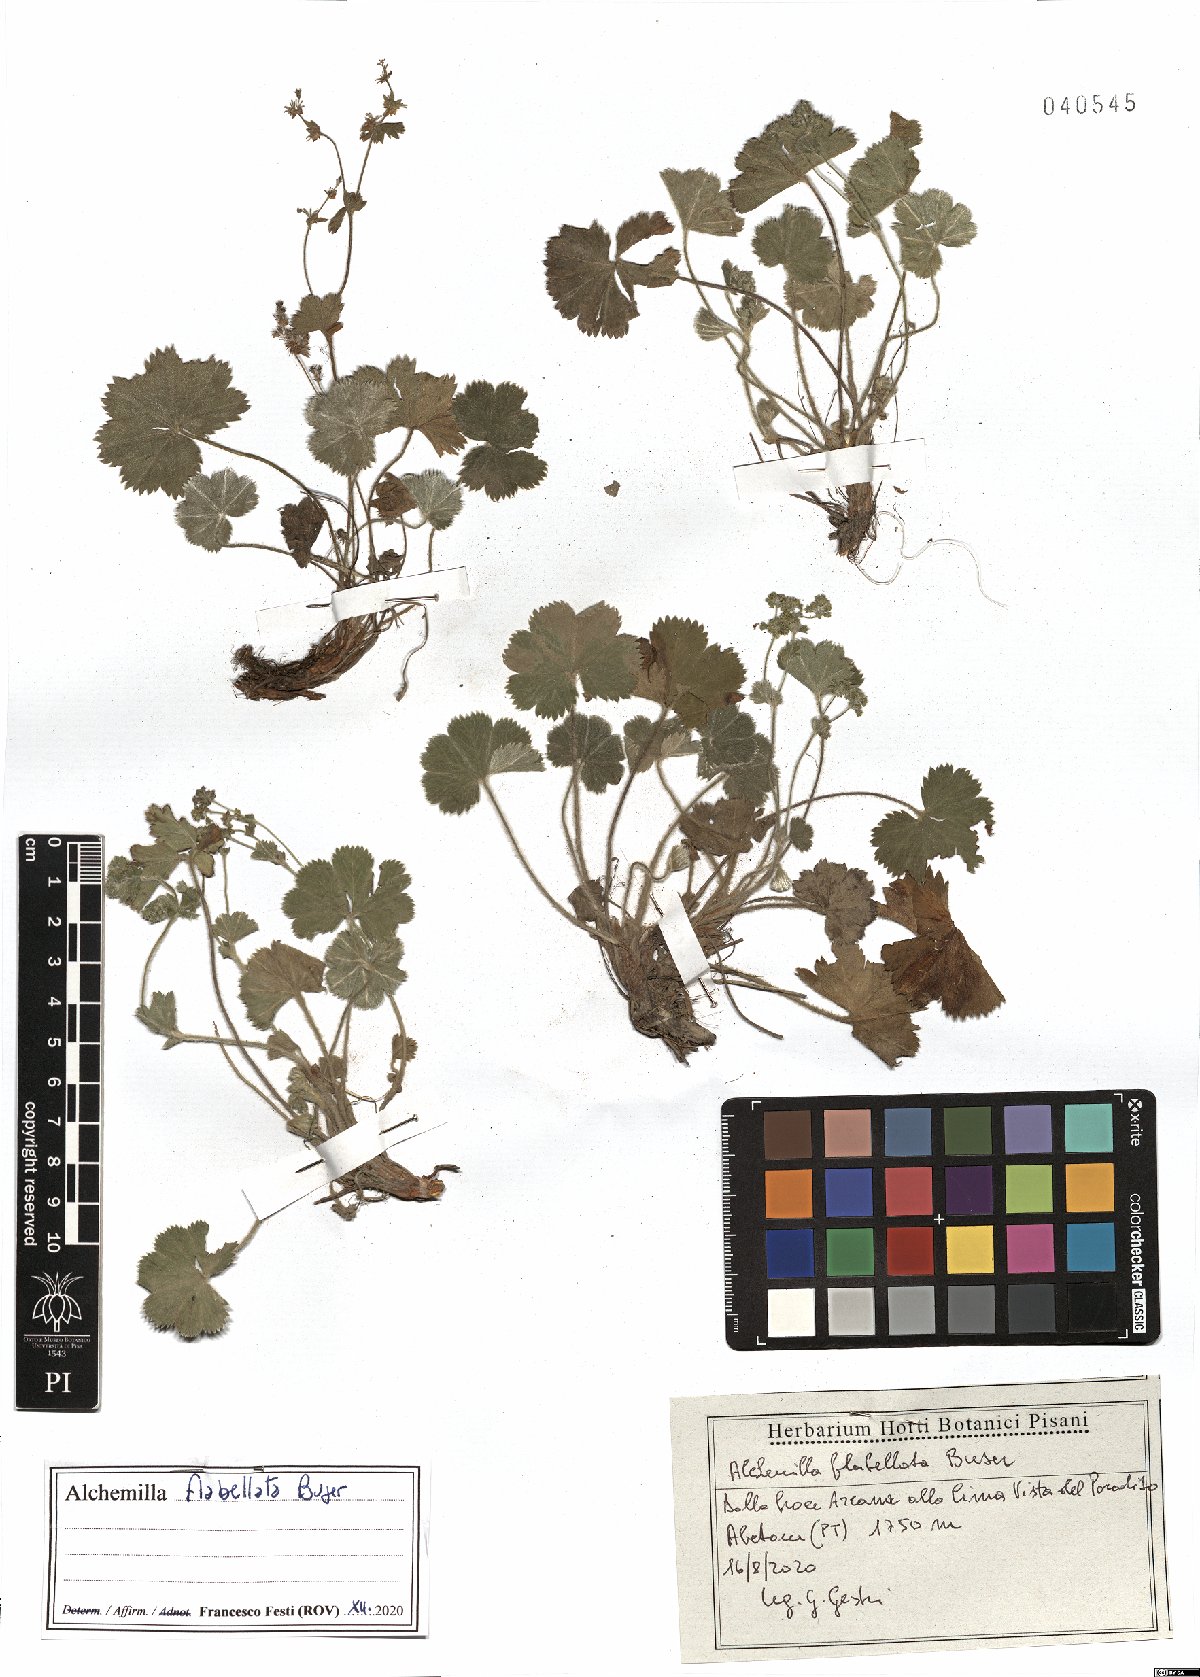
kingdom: Plantae
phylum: Tracheophyta
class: Magnoliopsida
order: Rosales
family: Rosaceae
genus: Alchemilla
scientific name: Alchemilla flabellata
